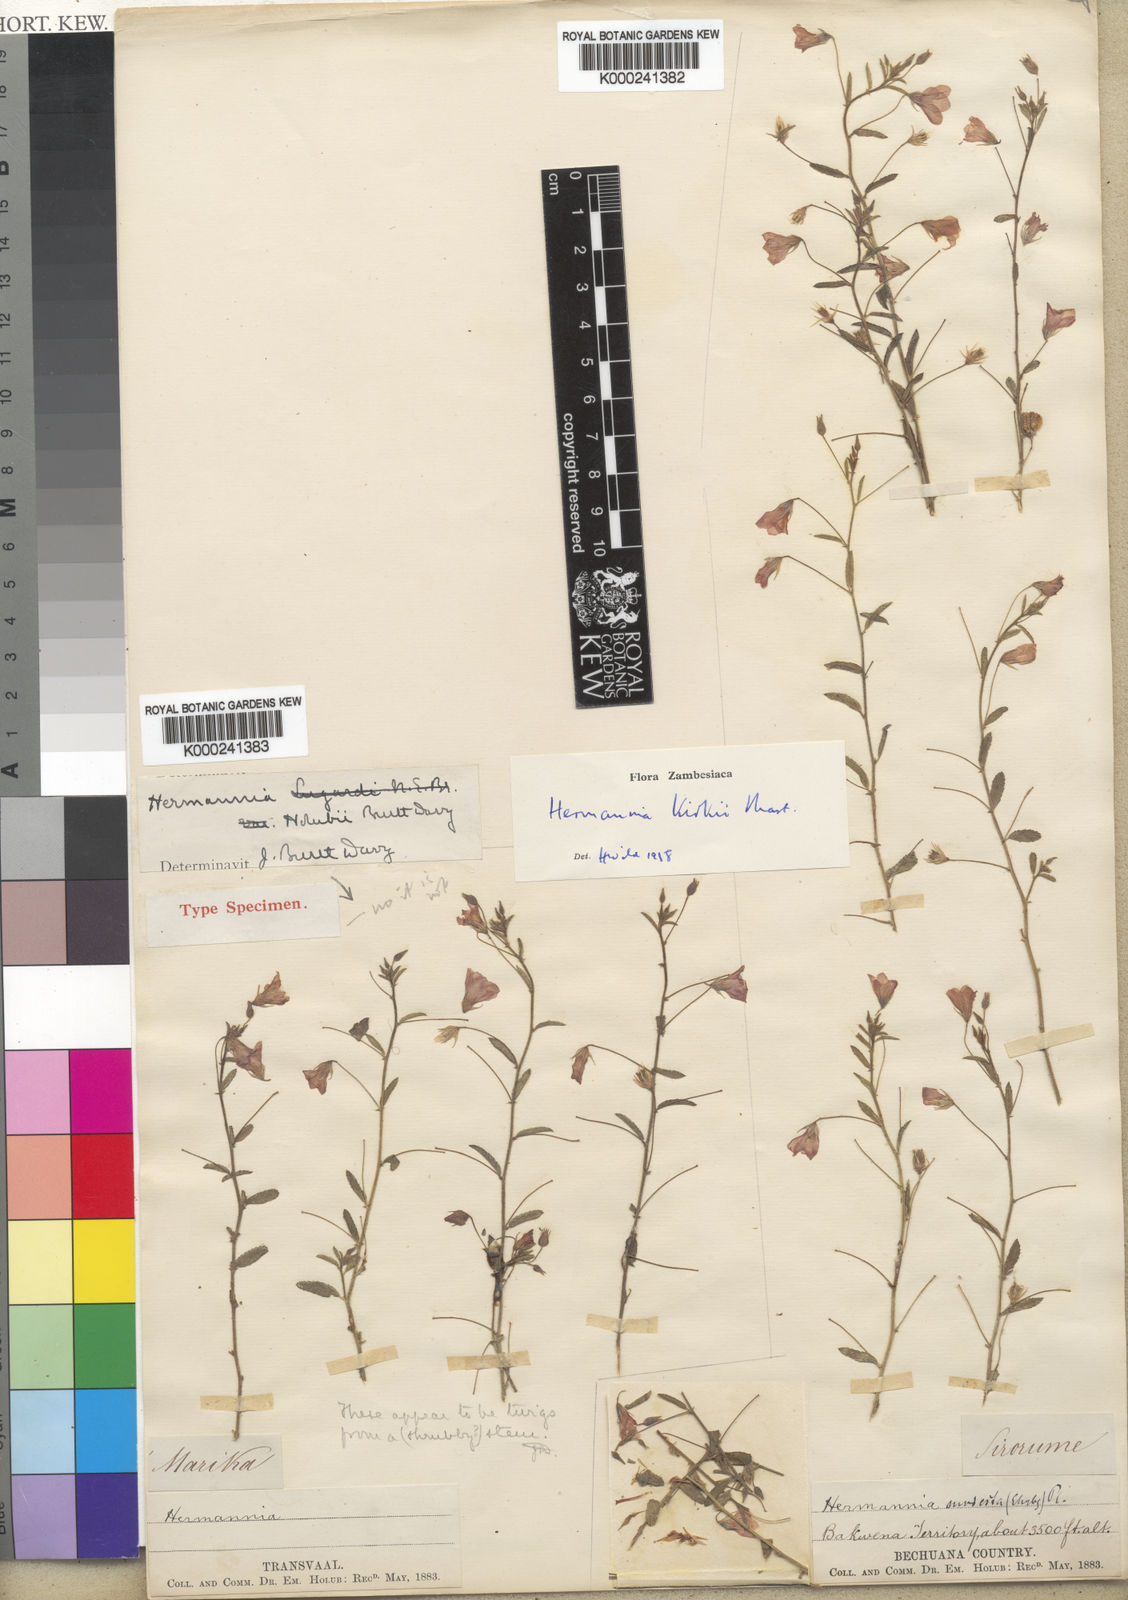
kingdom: Plantae
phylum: Tracheophyta
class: Magnoliopsida
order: Malvales
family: Malvaceae
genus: Hermannia
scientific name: Hermannia modesta
